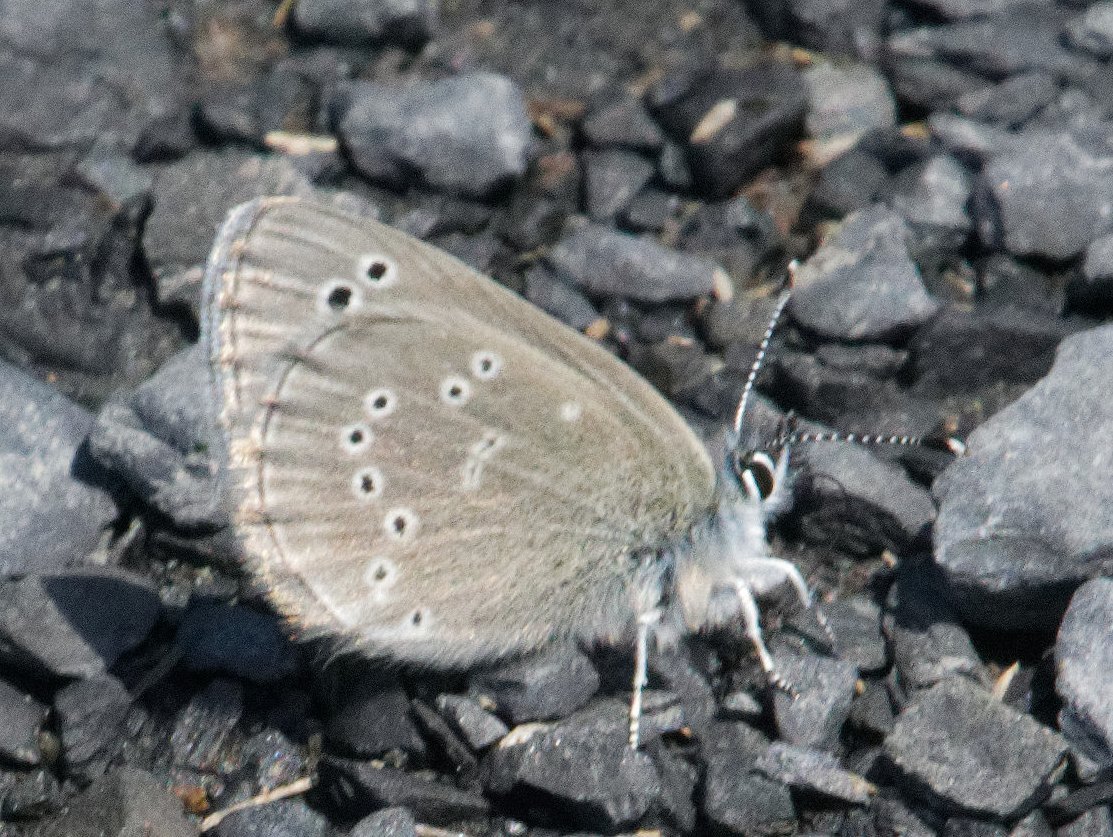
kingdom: Animalia
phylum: Arthropoda
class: Insecta
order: Lepidoptera
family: Lycaenidae
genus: Glaucopsyche
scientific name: Glaucopsyche lygdamus
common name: Silvery Blue
